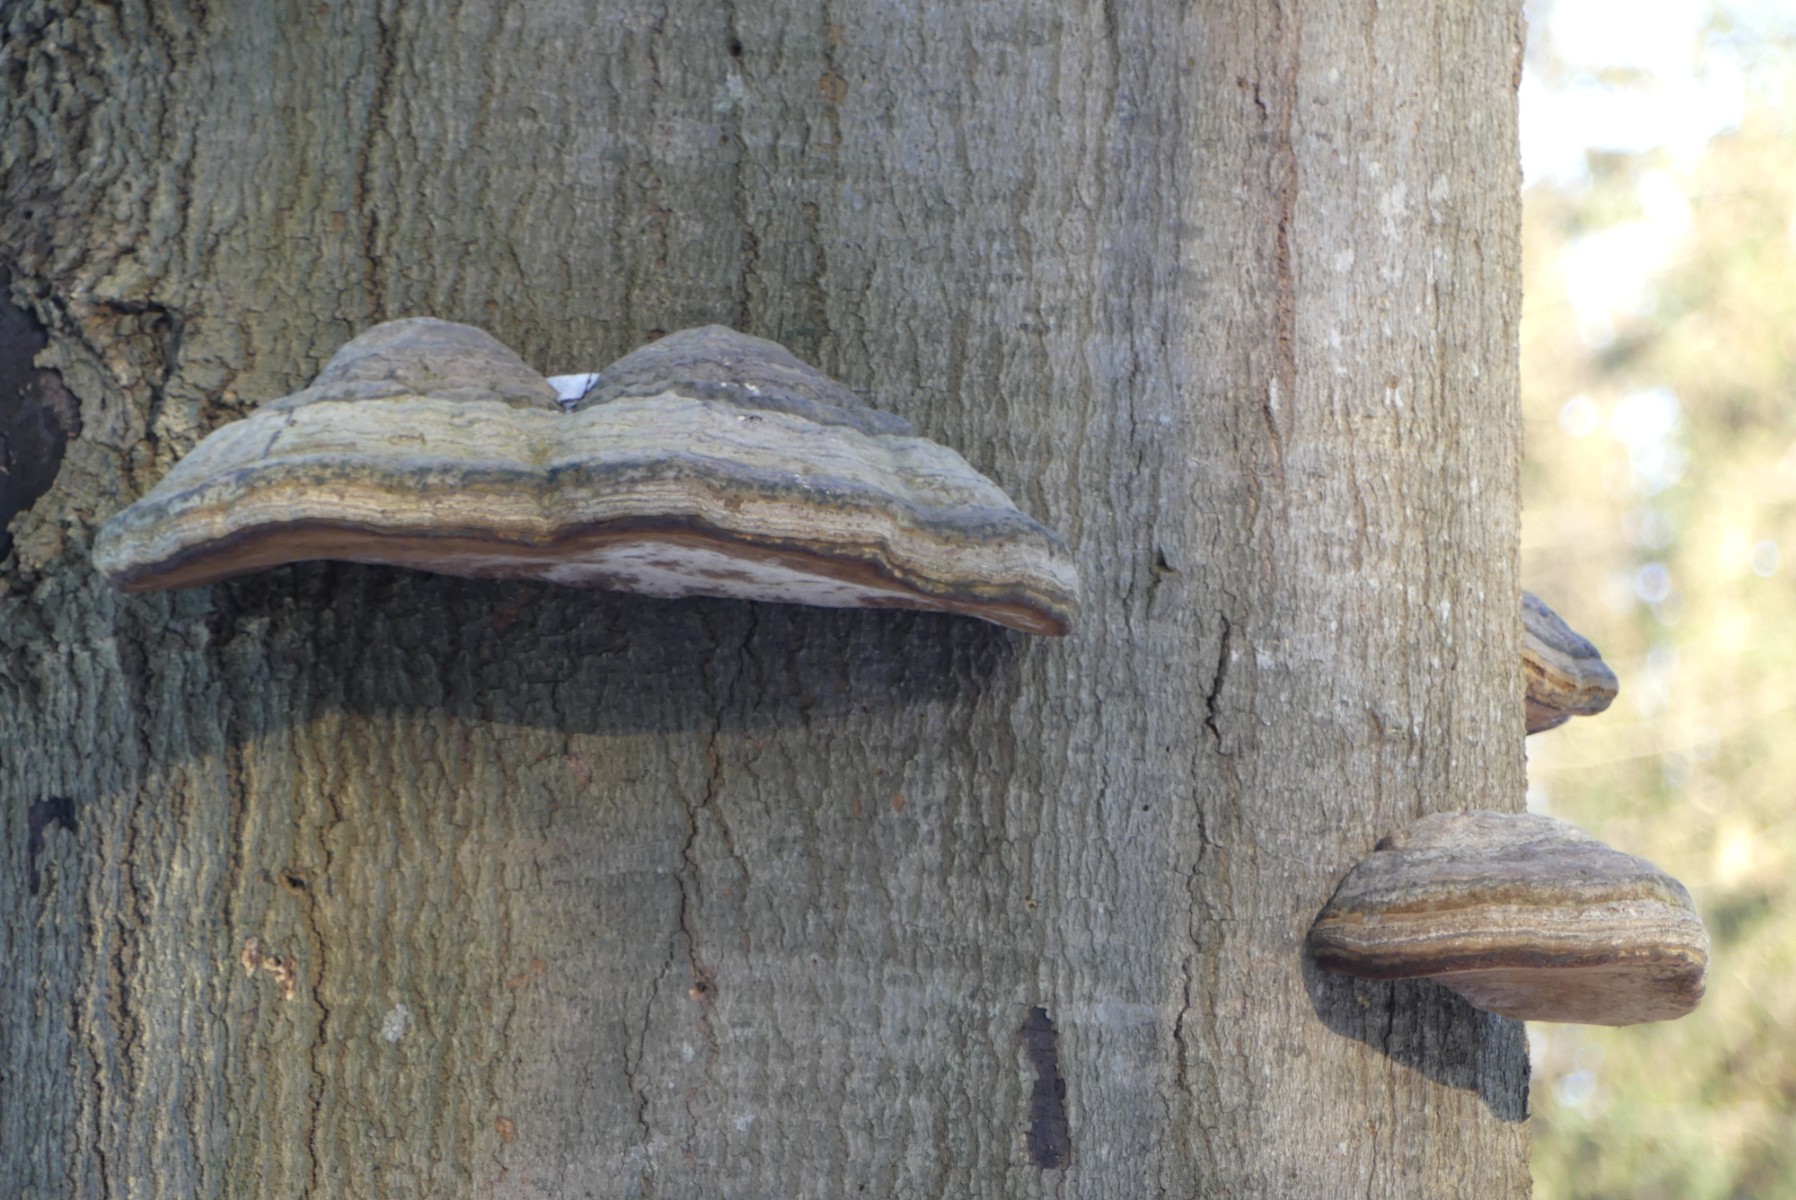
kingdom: Fungi
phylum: Basidiomycota
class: Agaricomycetes
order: Polyporales
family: Polyporaceae
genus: Fomes
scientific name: Fomes fomentarius
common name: tøndersvamp
